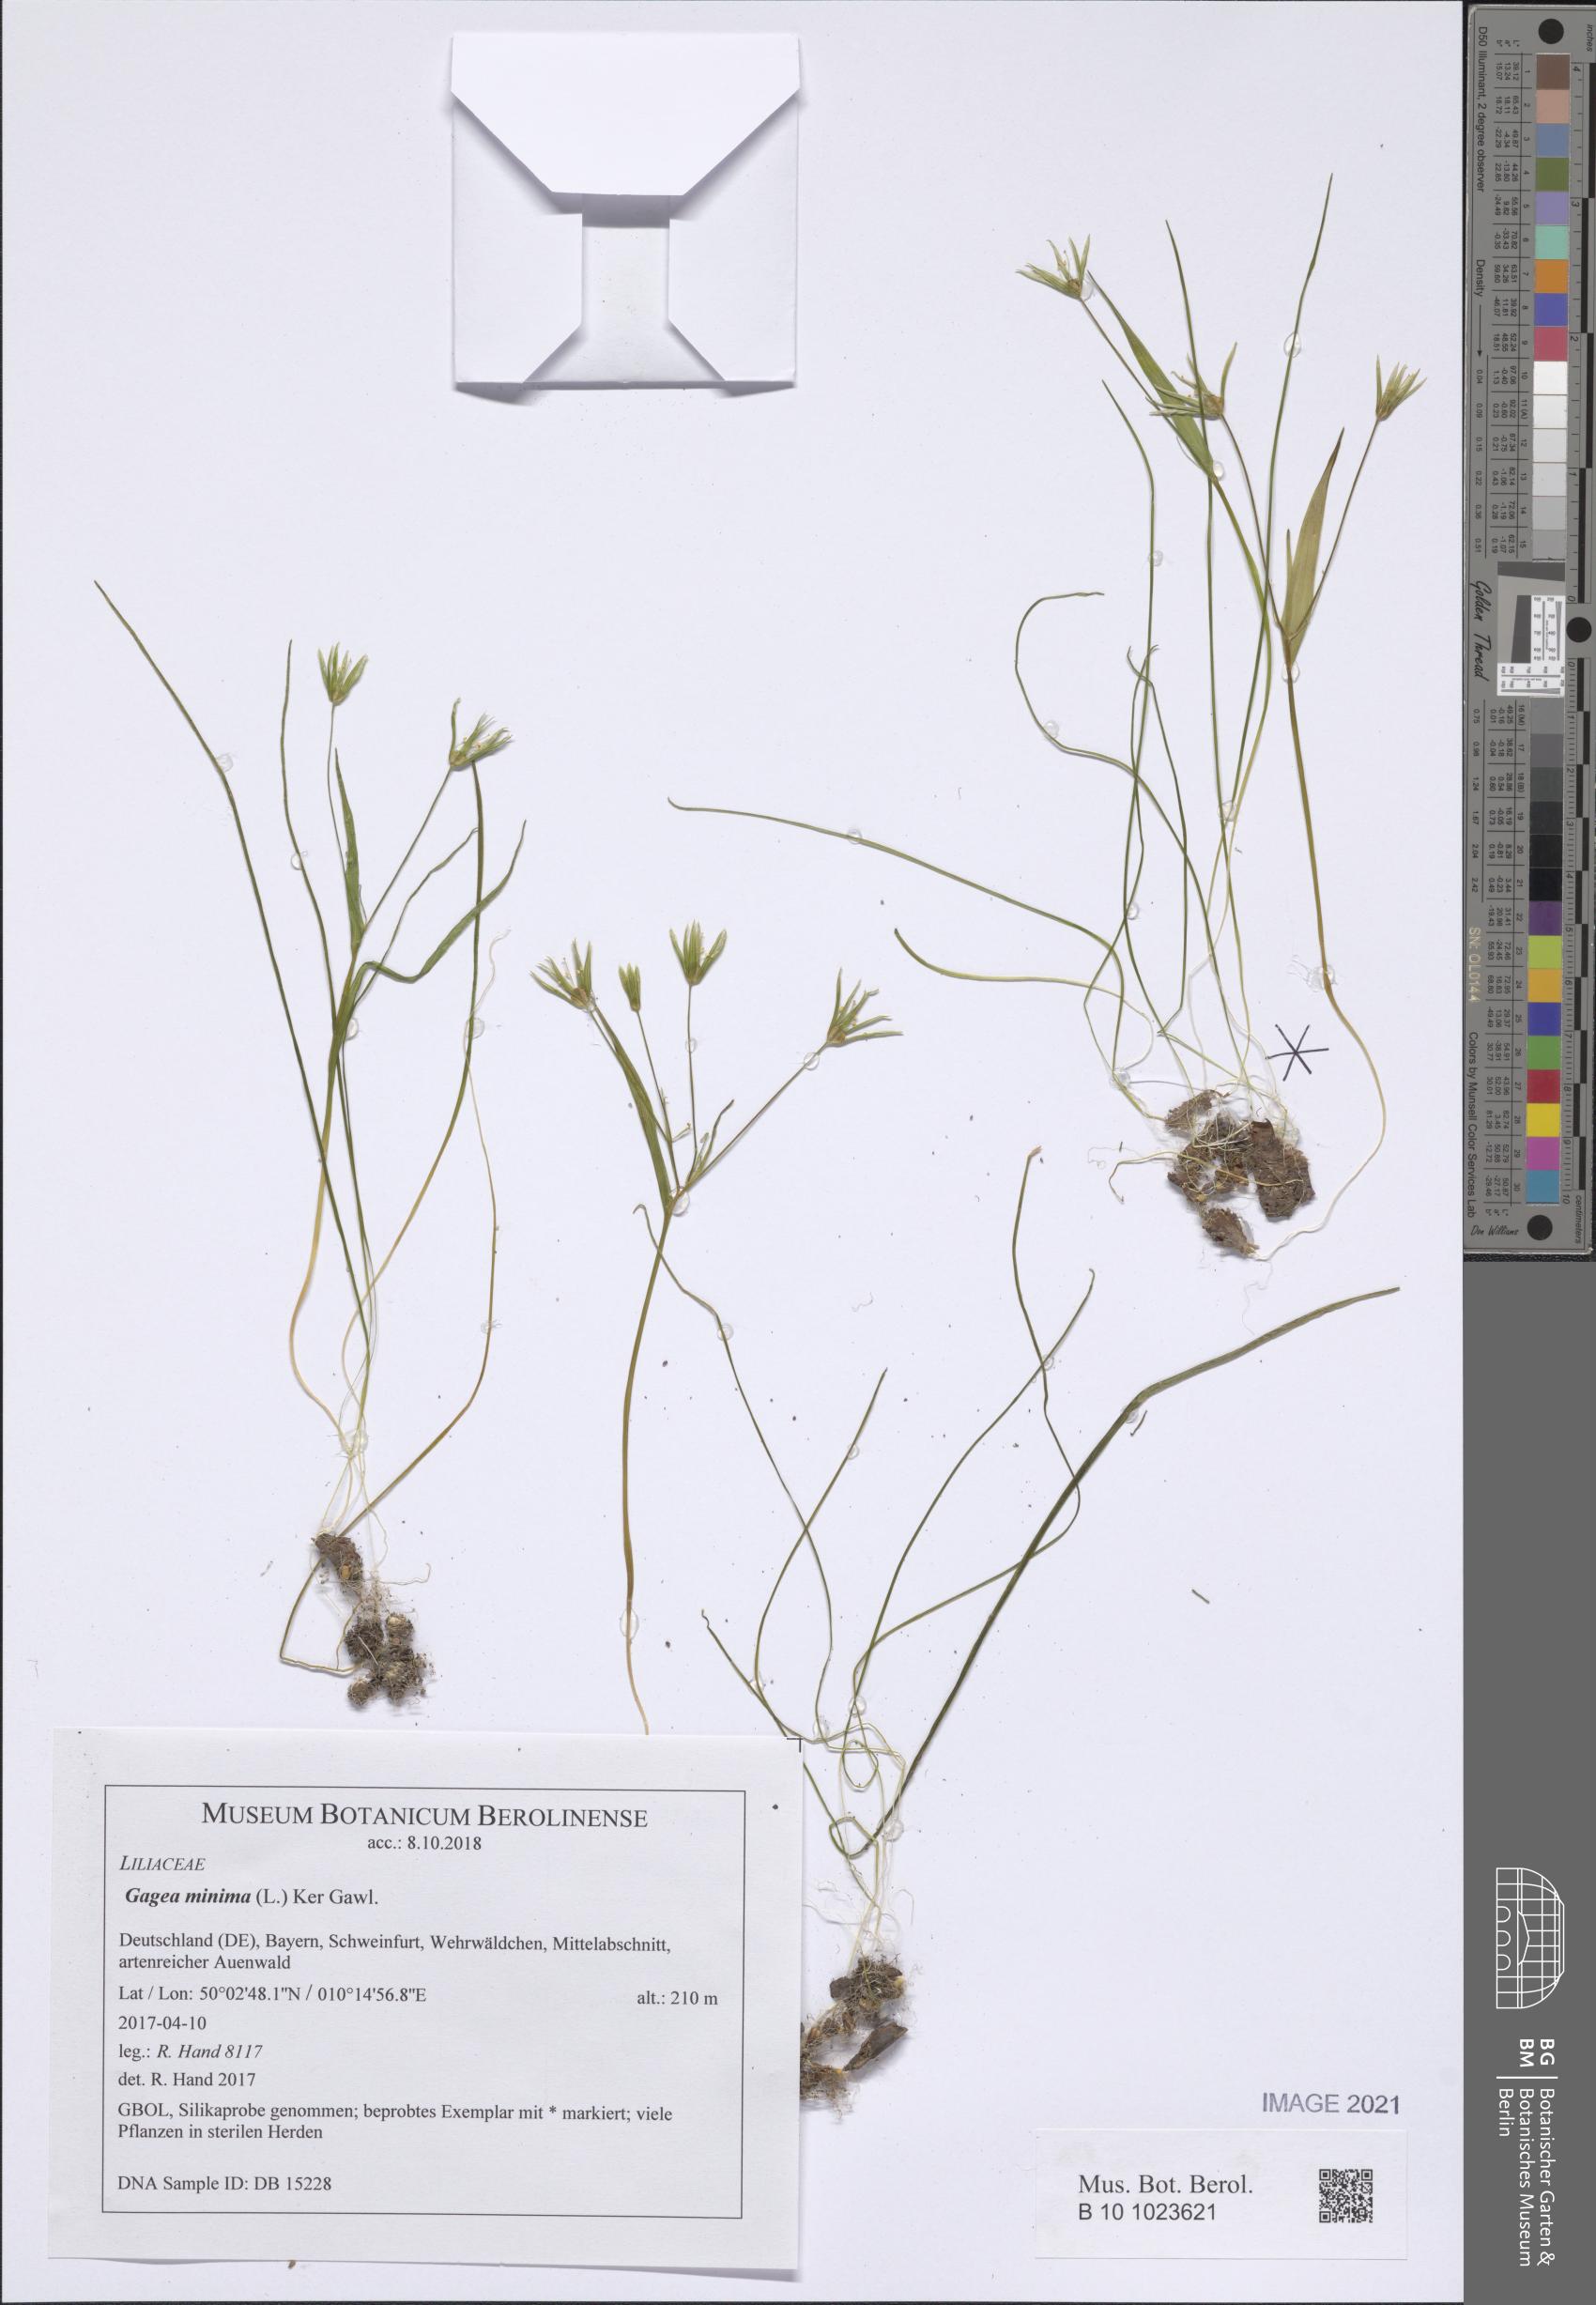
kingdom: Plantae
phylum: Tracheophyta
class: Liliopsida
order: Liliales
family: Liliaceae
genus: Gagea
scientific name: Gagea minima
